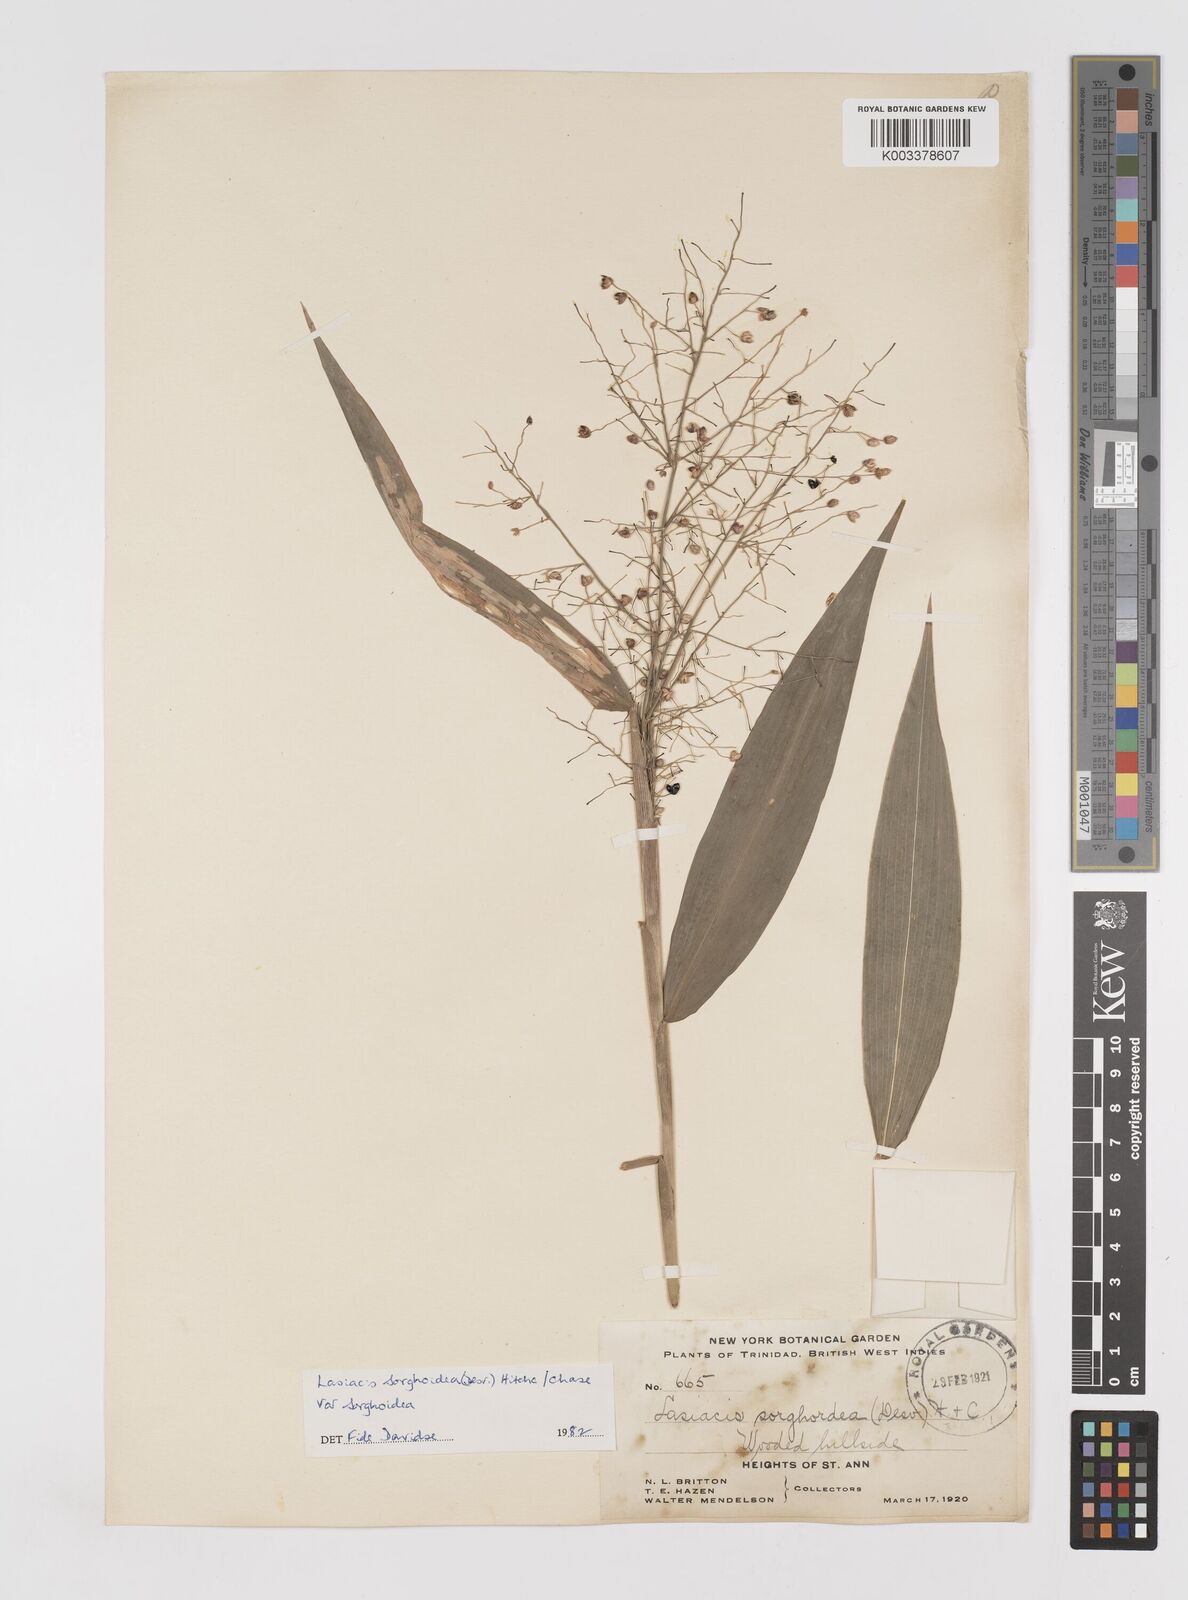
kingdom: Plantae
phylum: Tracheophyta
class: Liliopsida
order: Poales
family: Poaceae
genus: Lasiacis
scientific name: Lasiacis maculata
